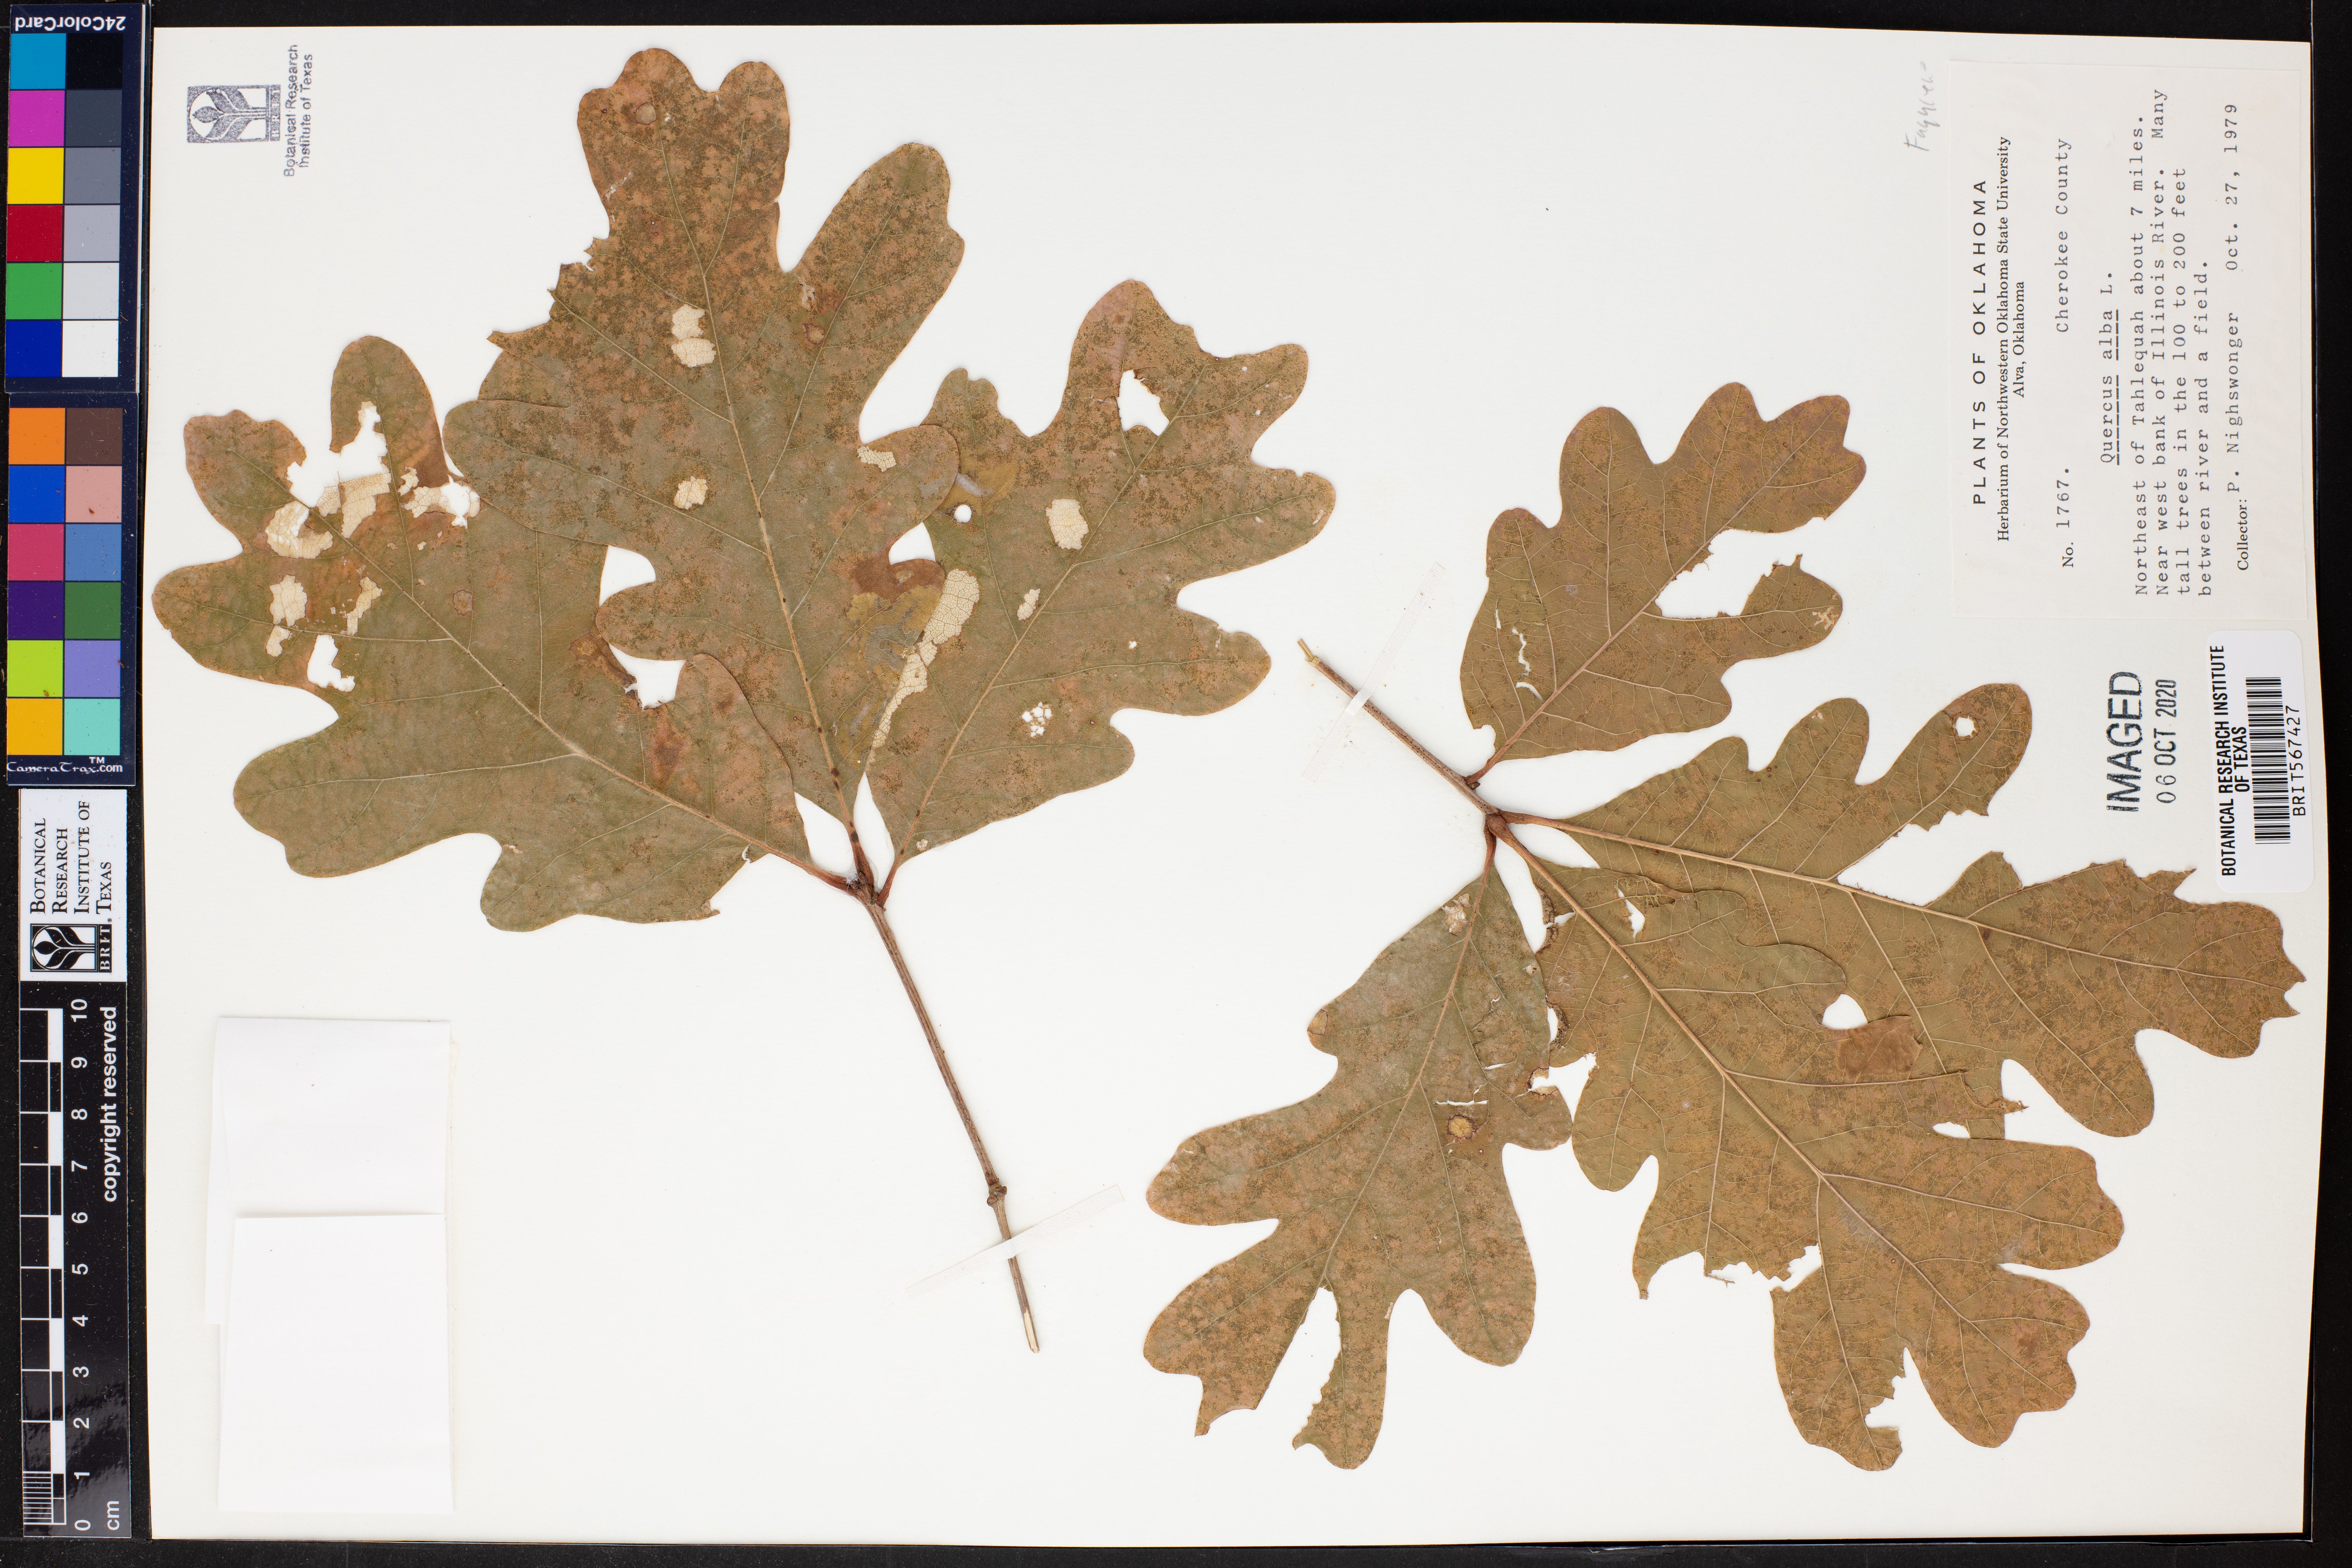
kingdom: Plantae
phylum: Tracheophyta
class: Magnoliopsida
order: Fagales
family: Fagaceae
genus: Quercus
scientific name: Quercus alba
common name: White oak
